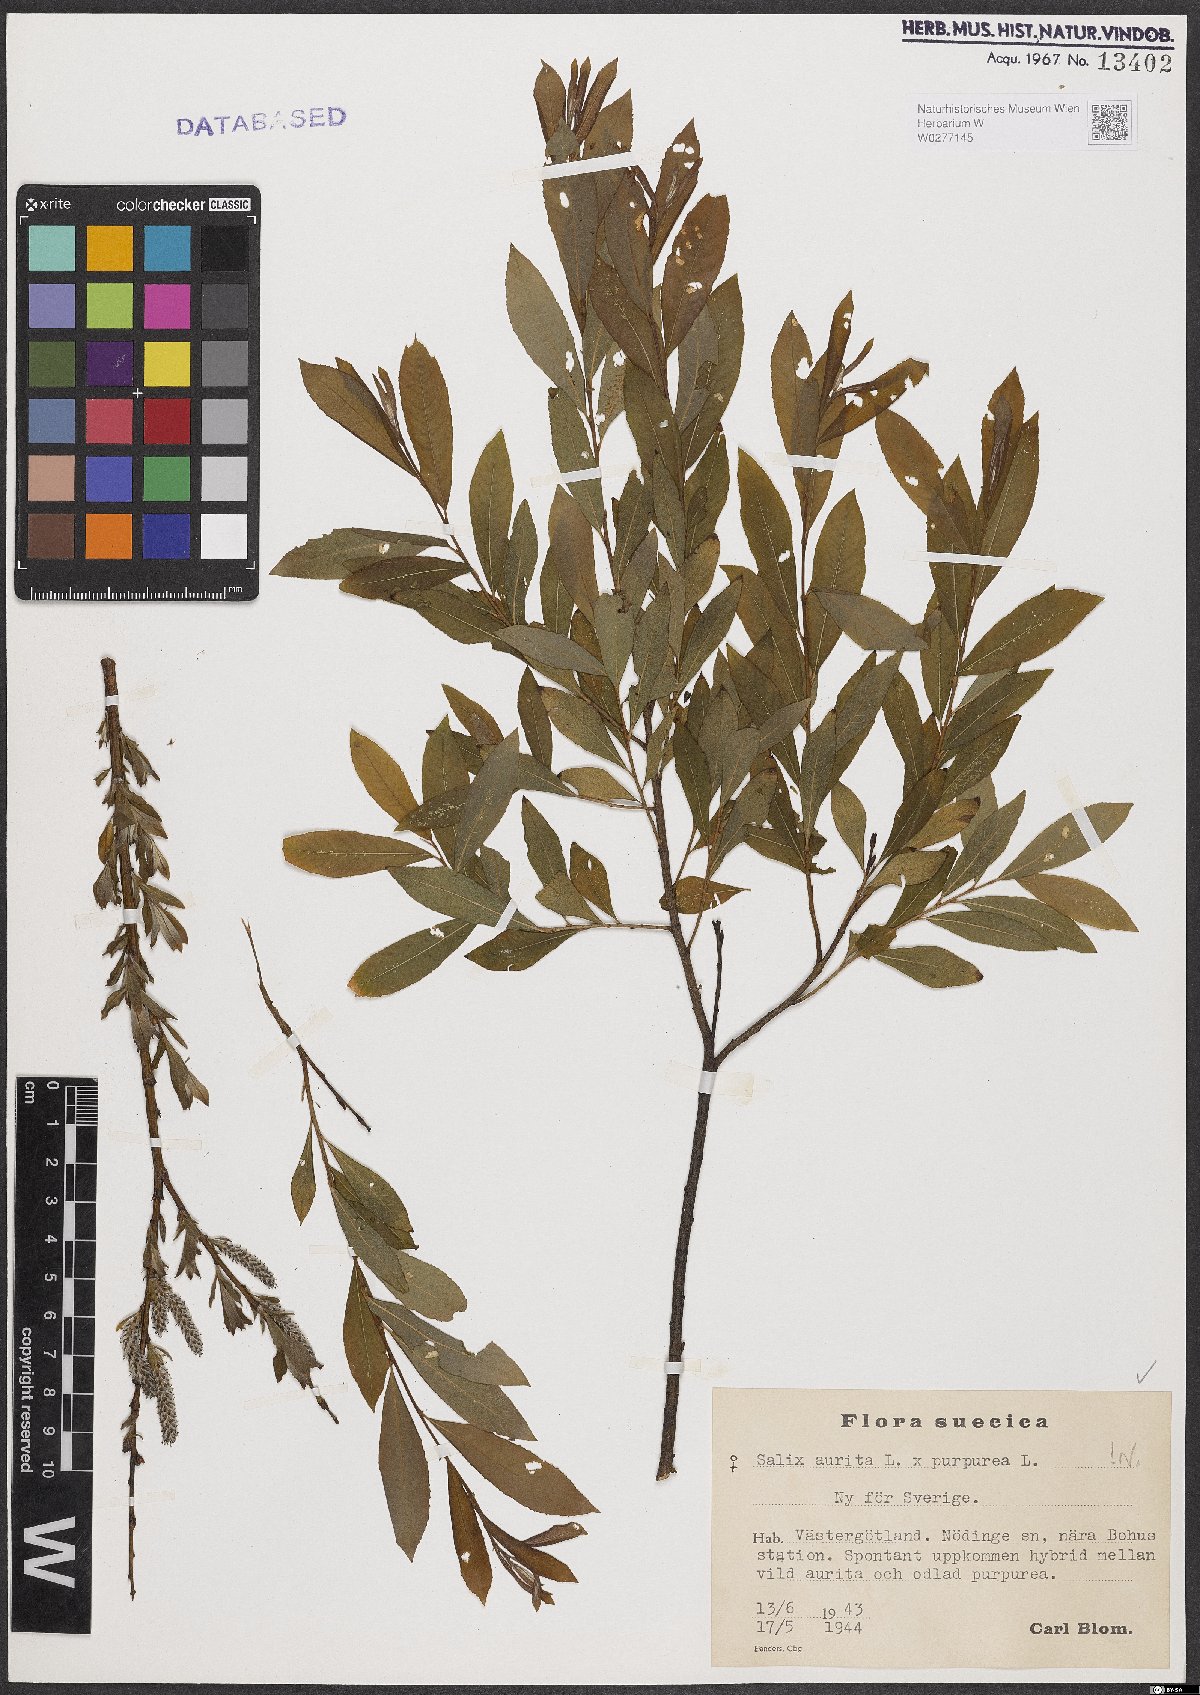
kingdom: Plantae
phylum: Tracheophyta
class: Magnoliopsida
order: Malpighiales
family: Salicaceae
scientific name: Salicaceae
